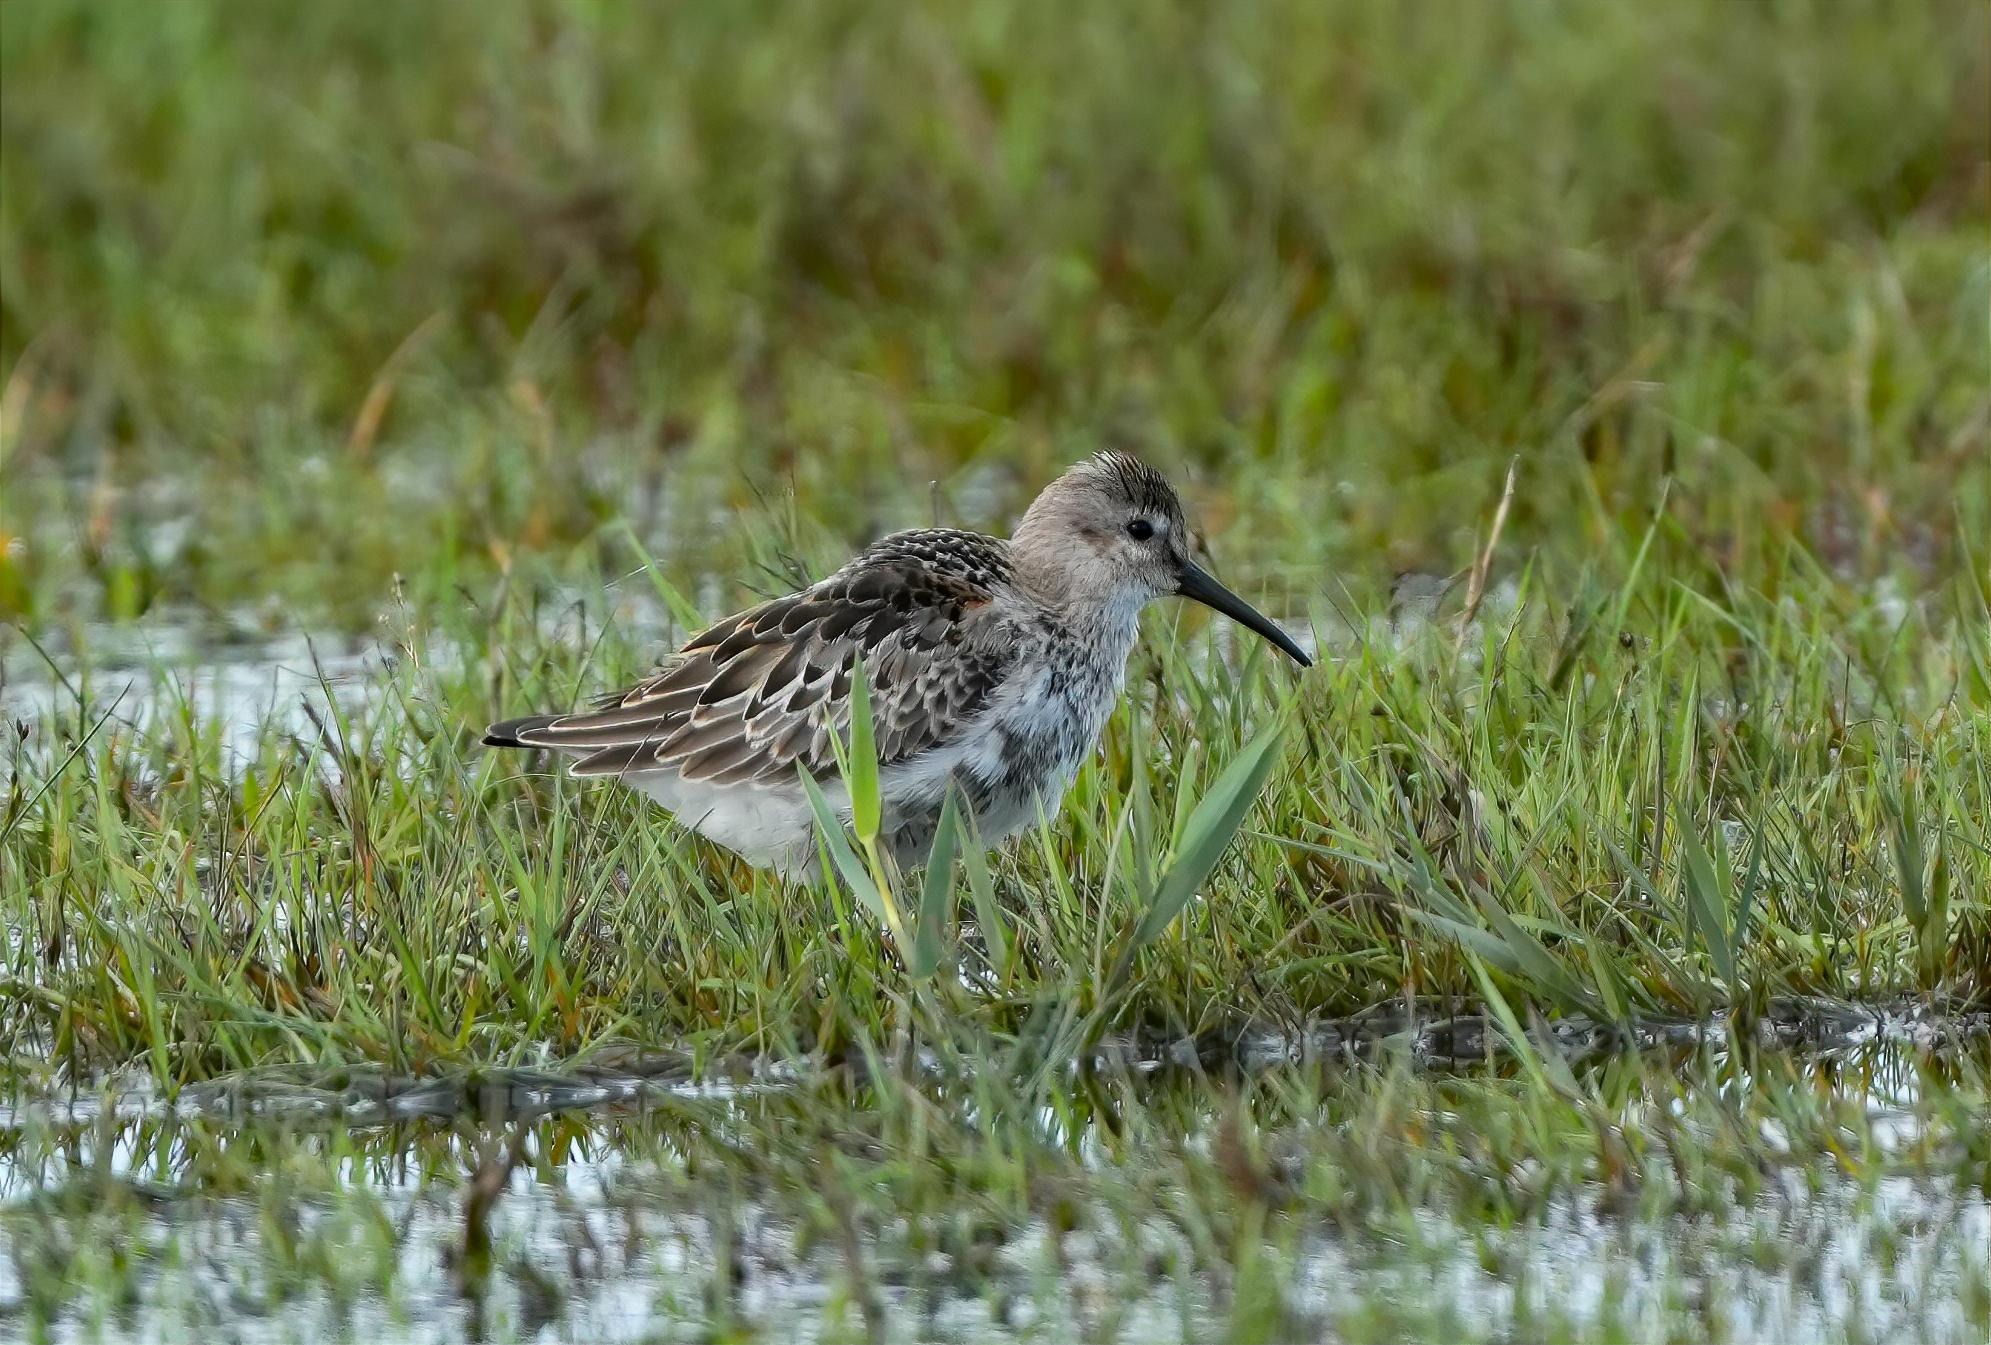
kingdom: Animalia
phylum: Chordata
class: Aves
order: Charadriiformes
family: Scolopacidae
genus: Calidris
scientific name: Calidris alpina
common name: Almindelig ryle
